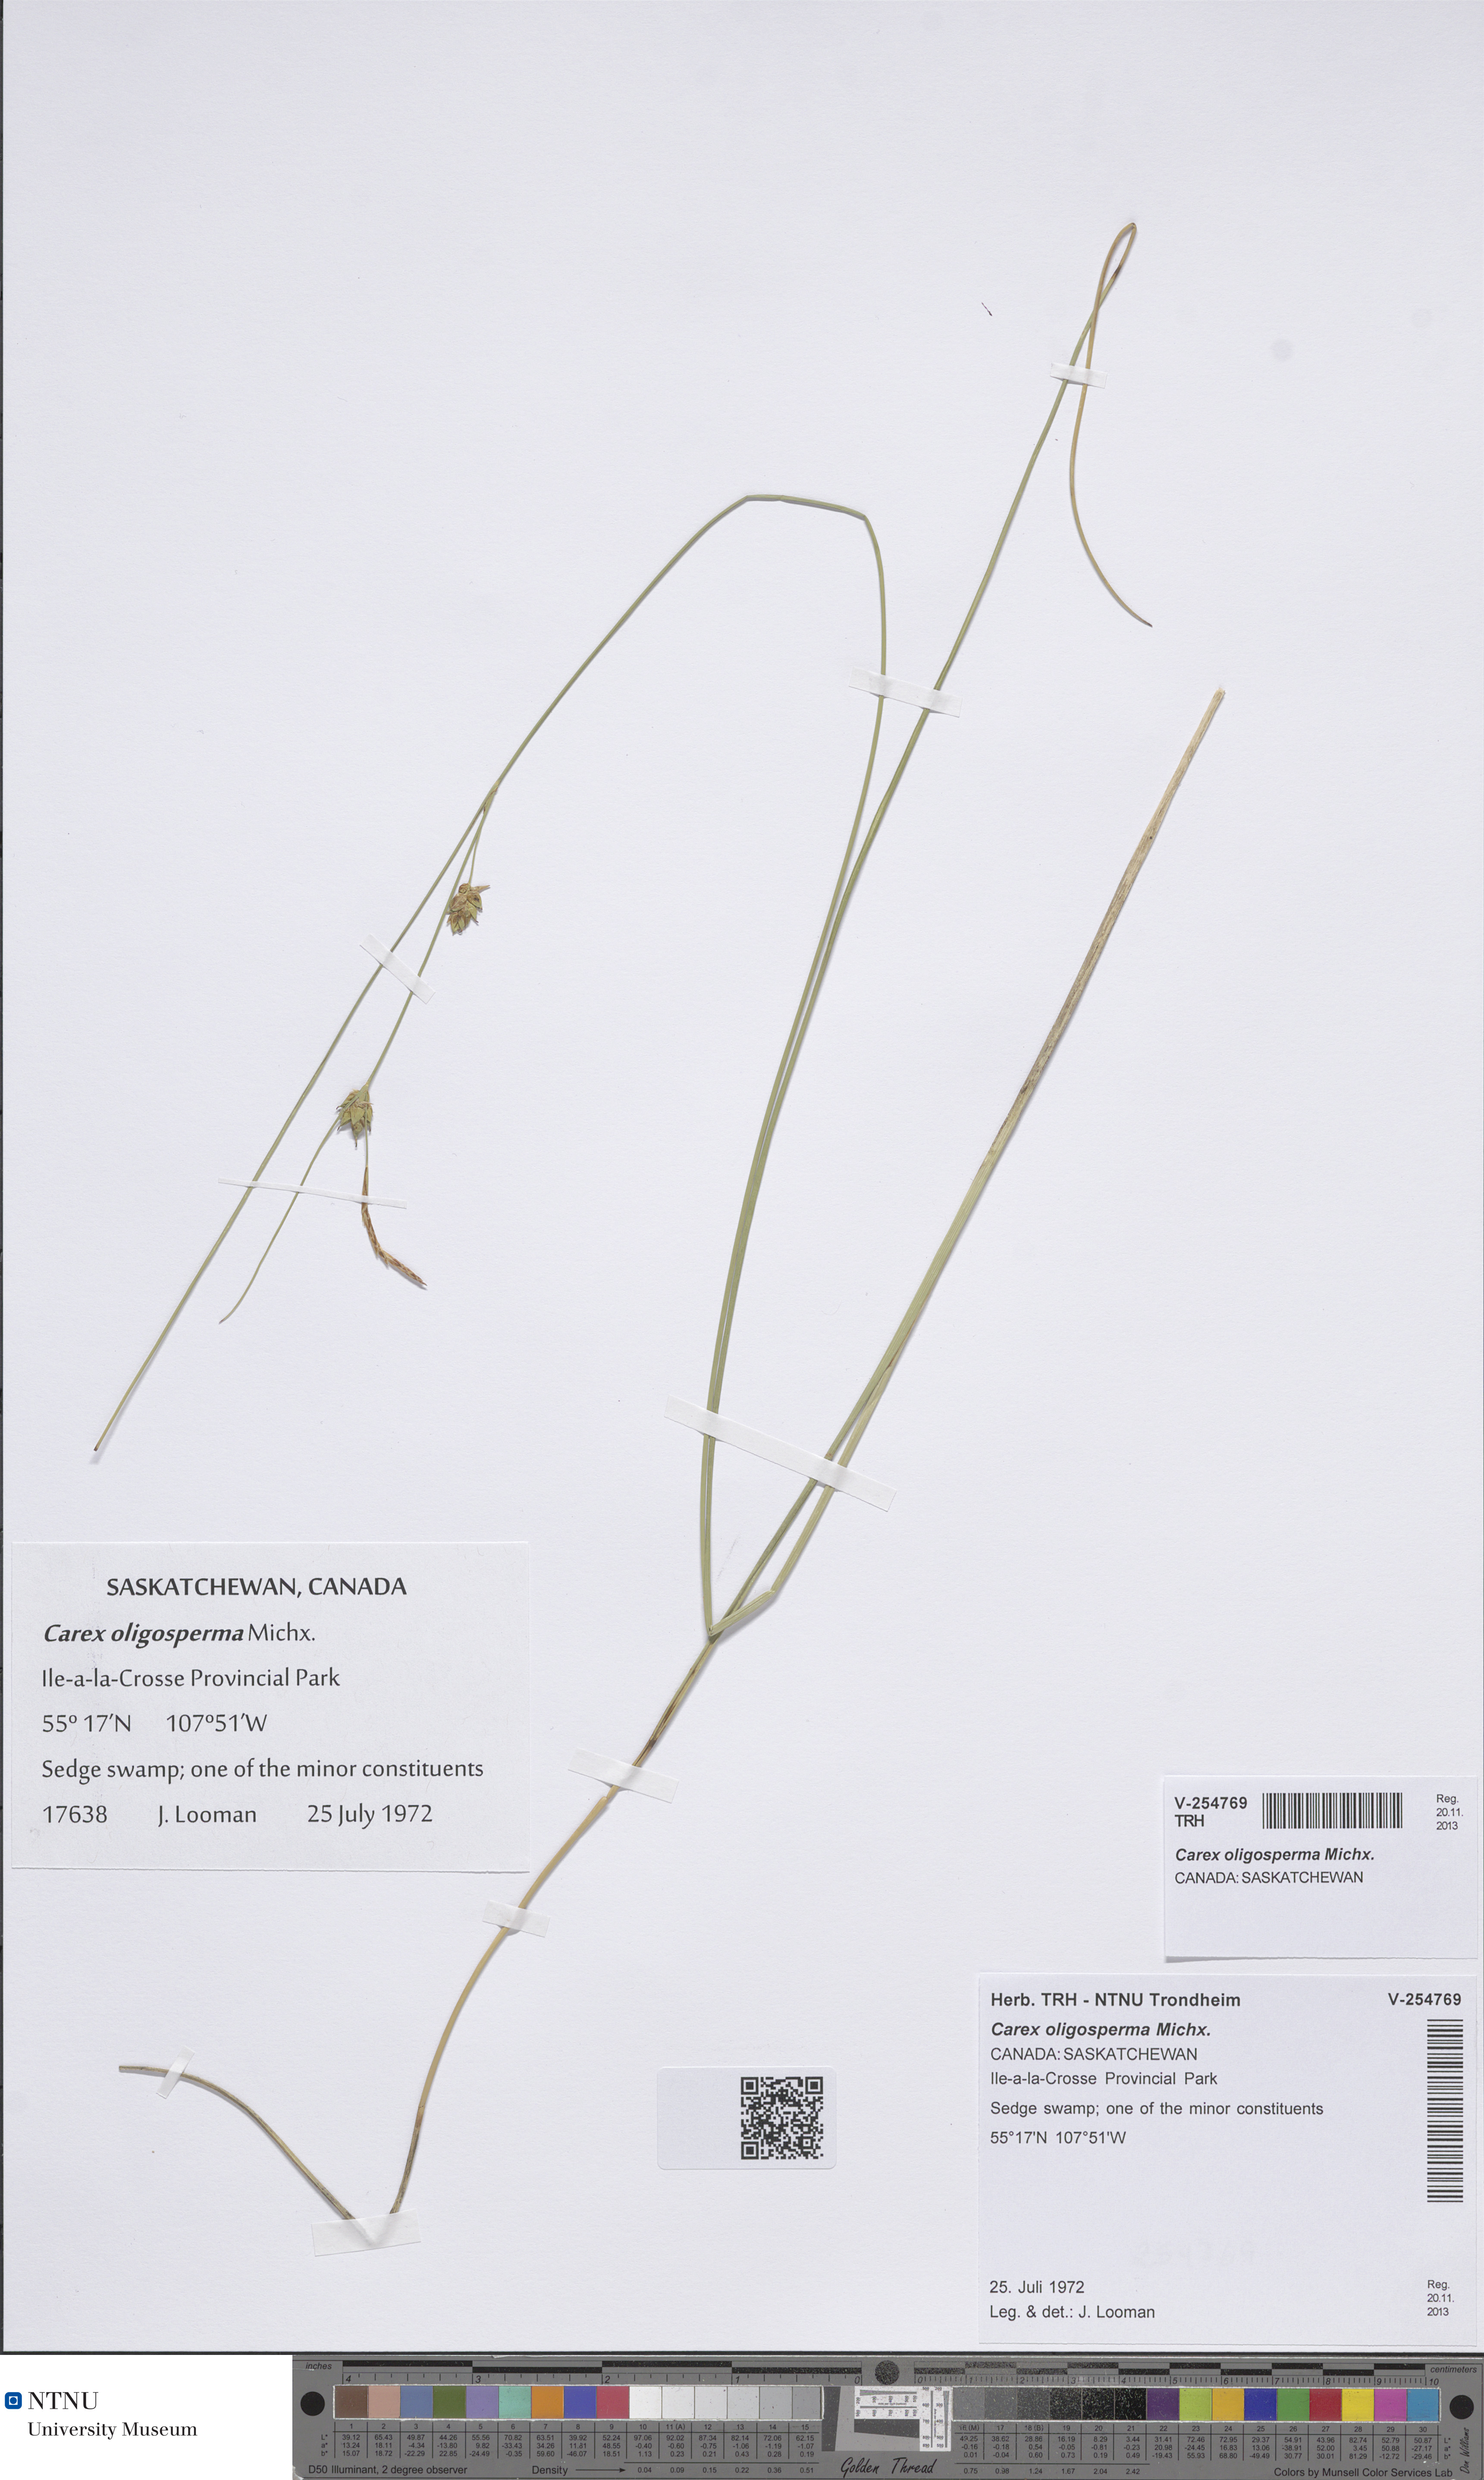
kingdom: Plantae
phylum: Tracheophyta
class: Liliopsida
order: Poales
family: Cyperaceae
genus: Carex
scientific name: Carex oligosperma
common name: Few-seed sedge
